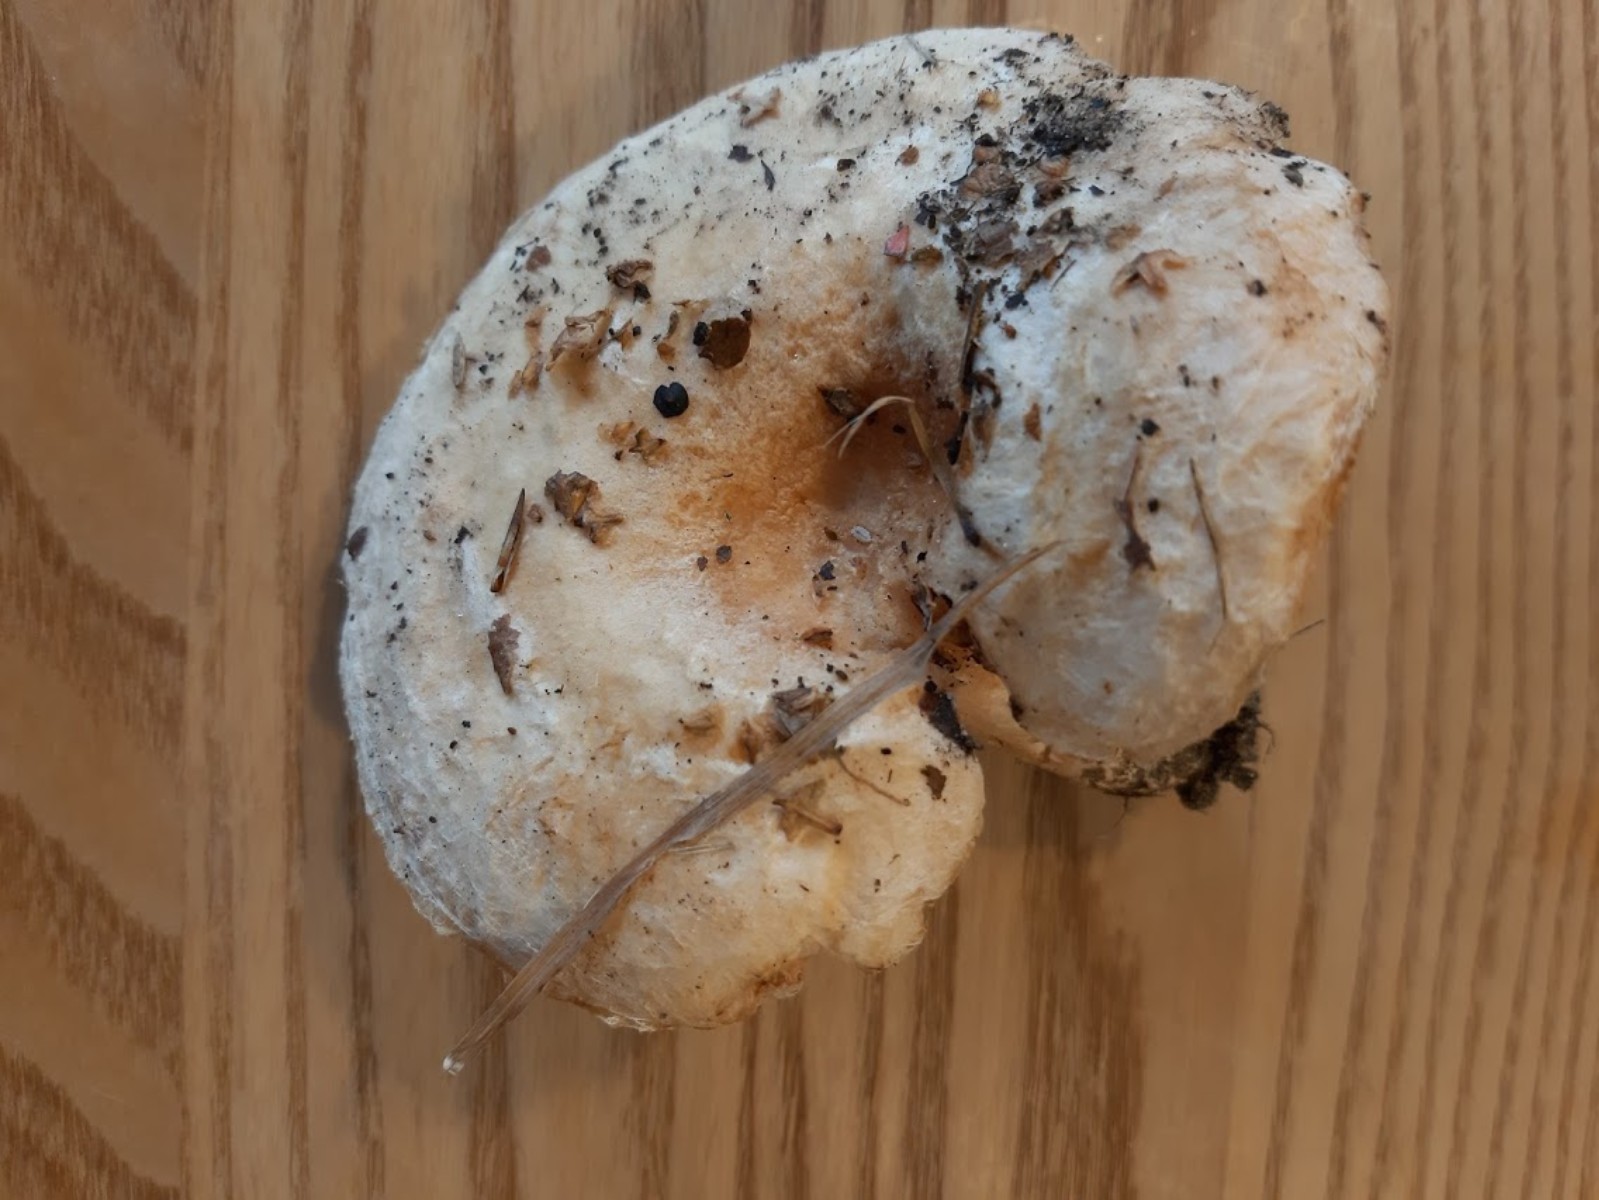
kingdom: Fungi
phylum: Basidiomycota
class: Agaricomycetes
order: Russulales
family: Russulaceae
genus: Lactarius
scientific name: Lactarius pubescens
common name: dunet mælkehat
